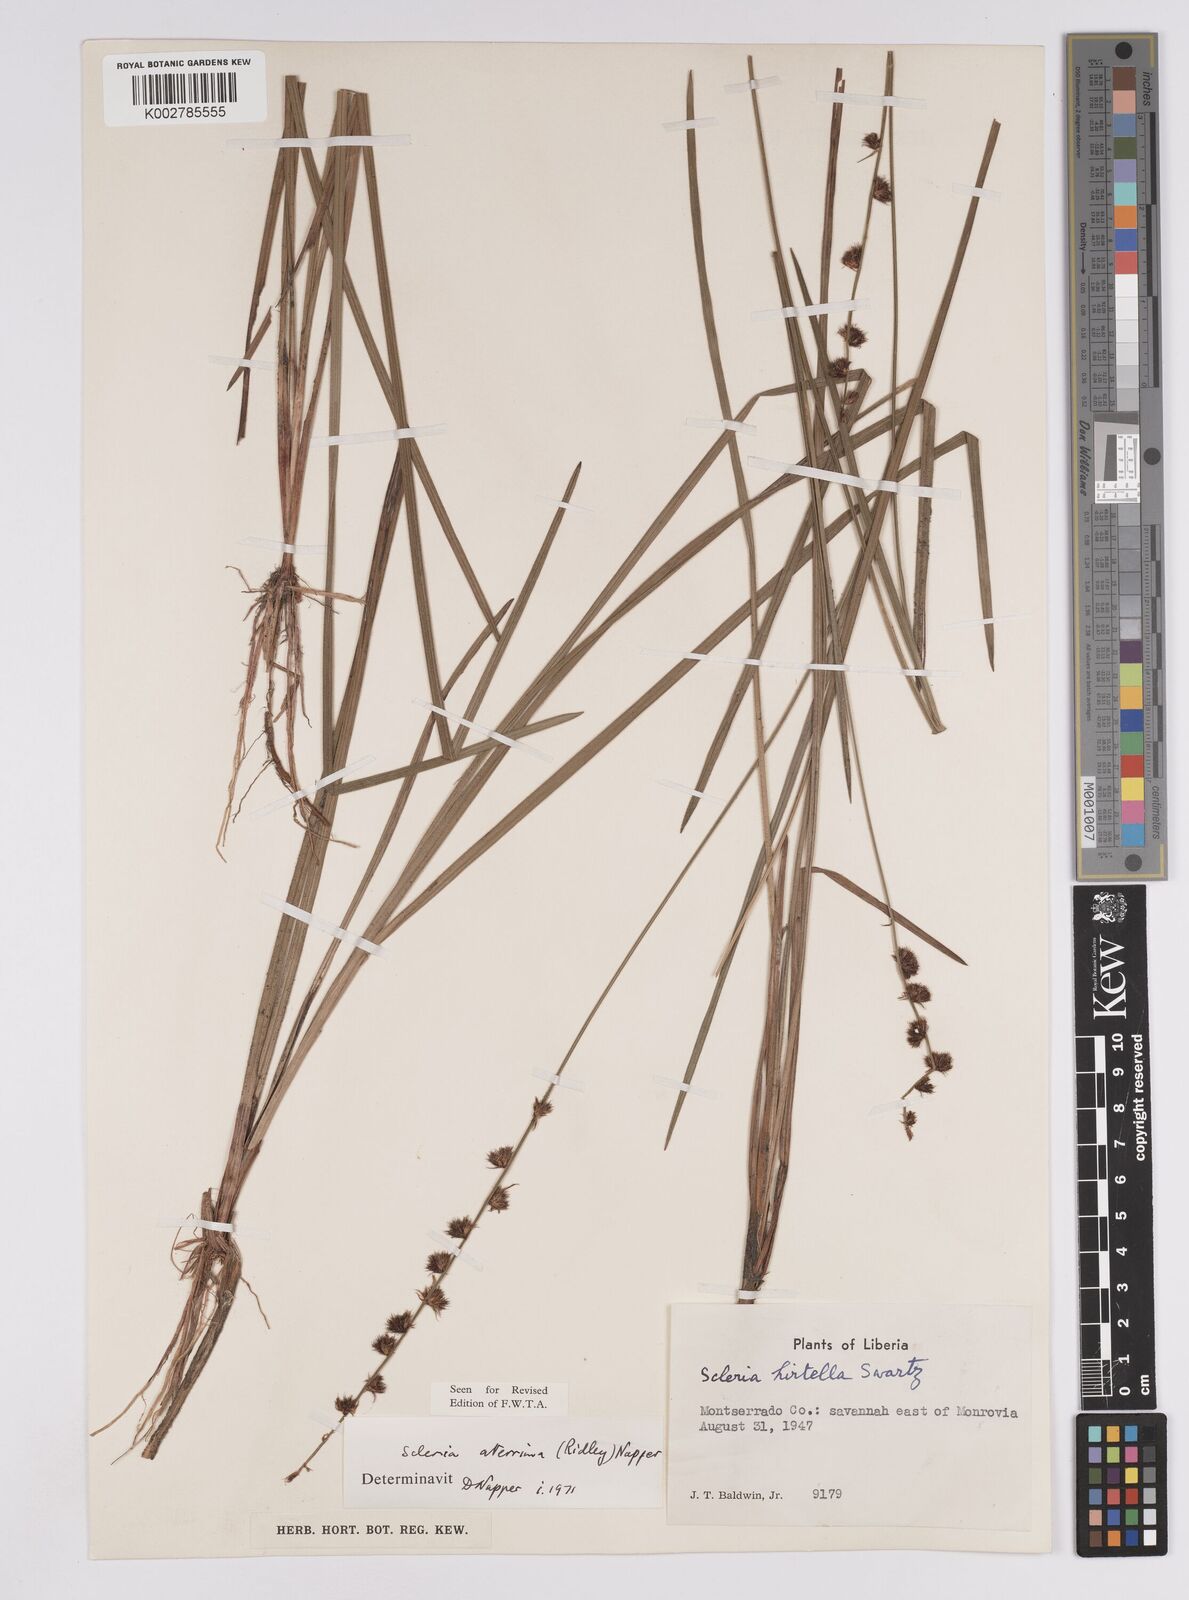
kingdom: Plantae
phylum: Tracheophyta
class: Liliopsida
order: Poales
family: Cyperaceae
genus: Scleria
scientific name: Scleria catophylla
